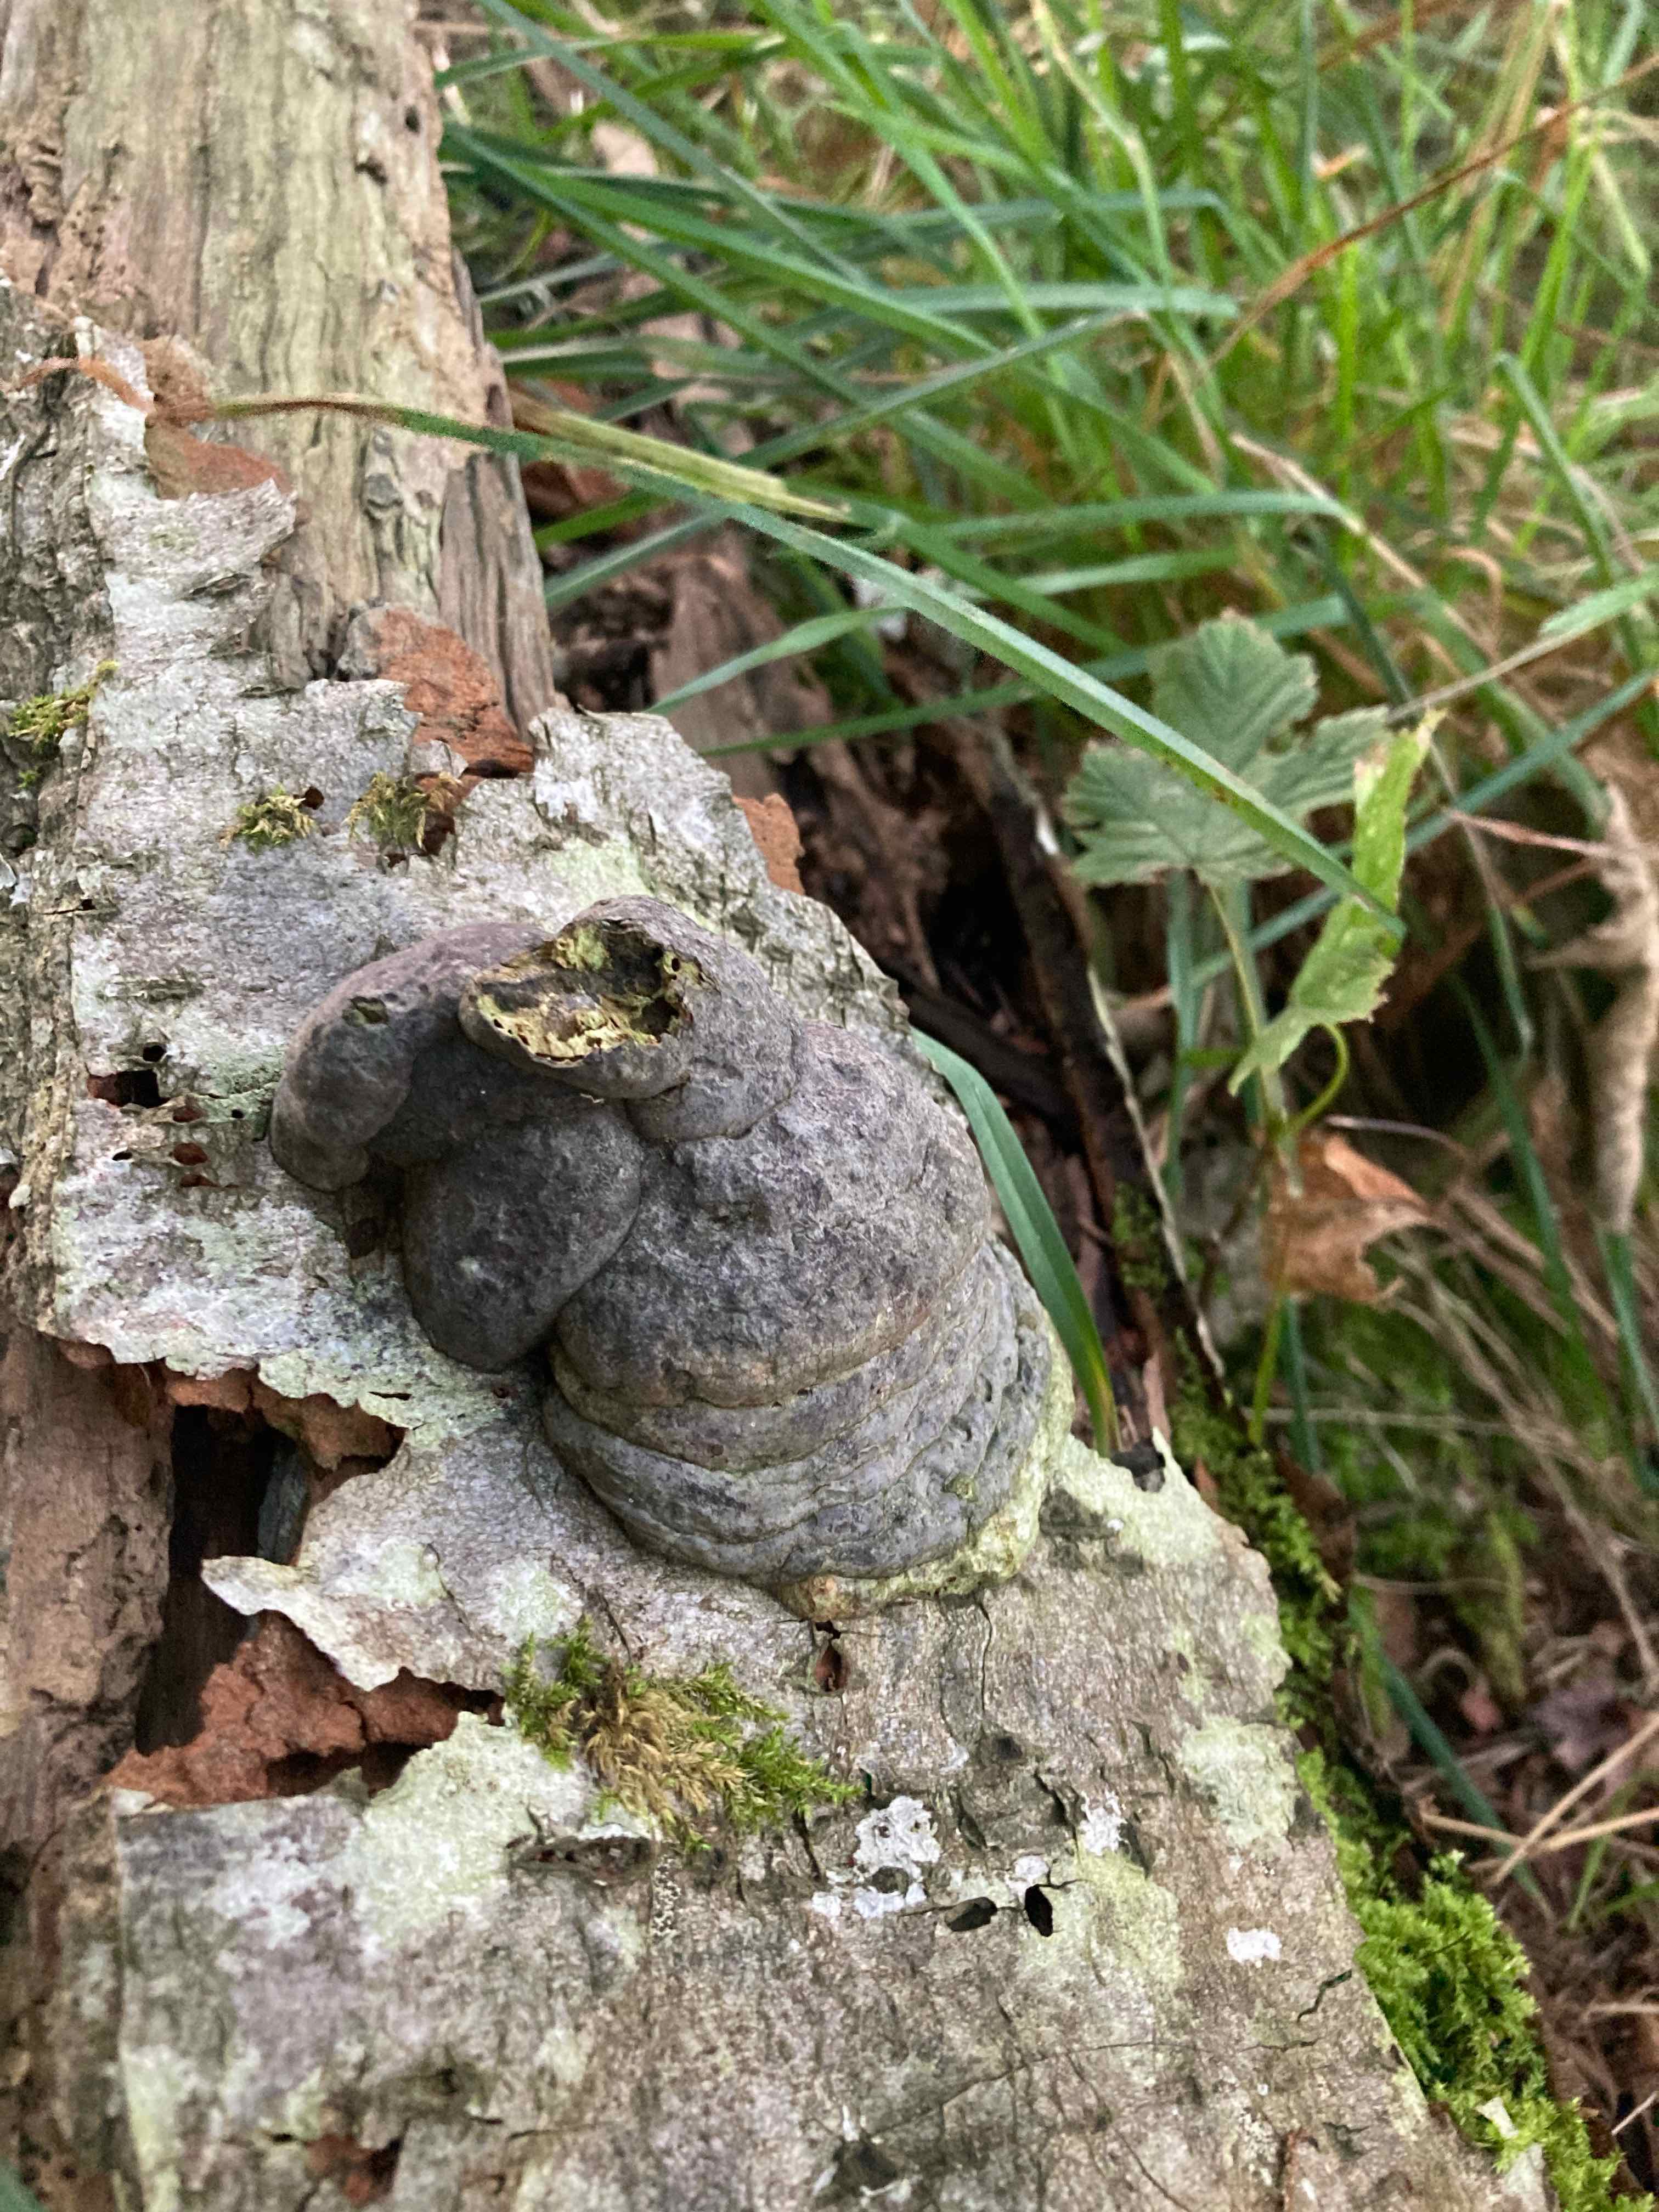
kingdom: Fungi
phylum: Basidiomycota
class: Agaricomycetes
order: Polyporales
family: Polyporaceae
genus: Fomes
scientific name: Fomes fomentarius
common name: tøndersvamp
